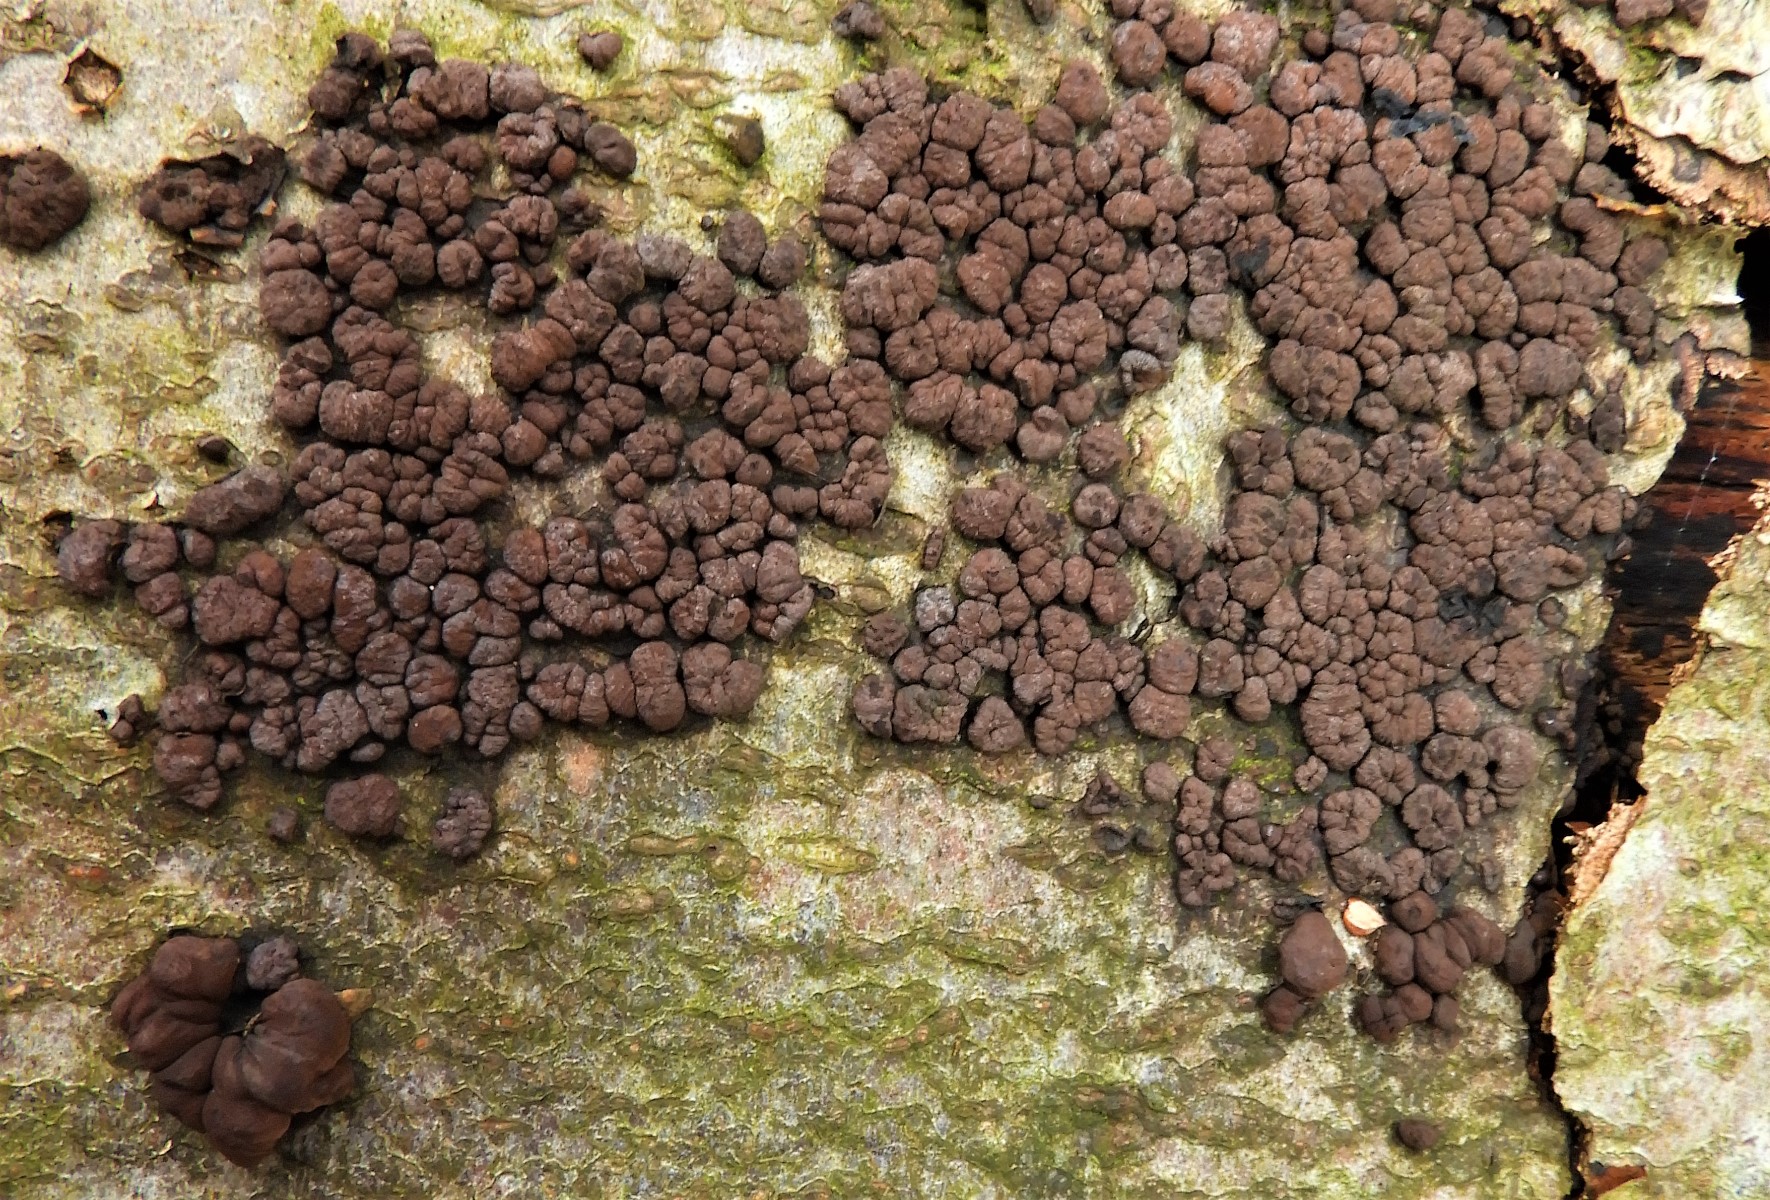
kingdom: Fungi
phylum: Ascomycota
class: Sordariomycetes
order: Xylariales
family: Hypoxylaceae
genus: Hypoxylon
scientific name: Hypoxylon fragiforme
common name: kuljordbær
